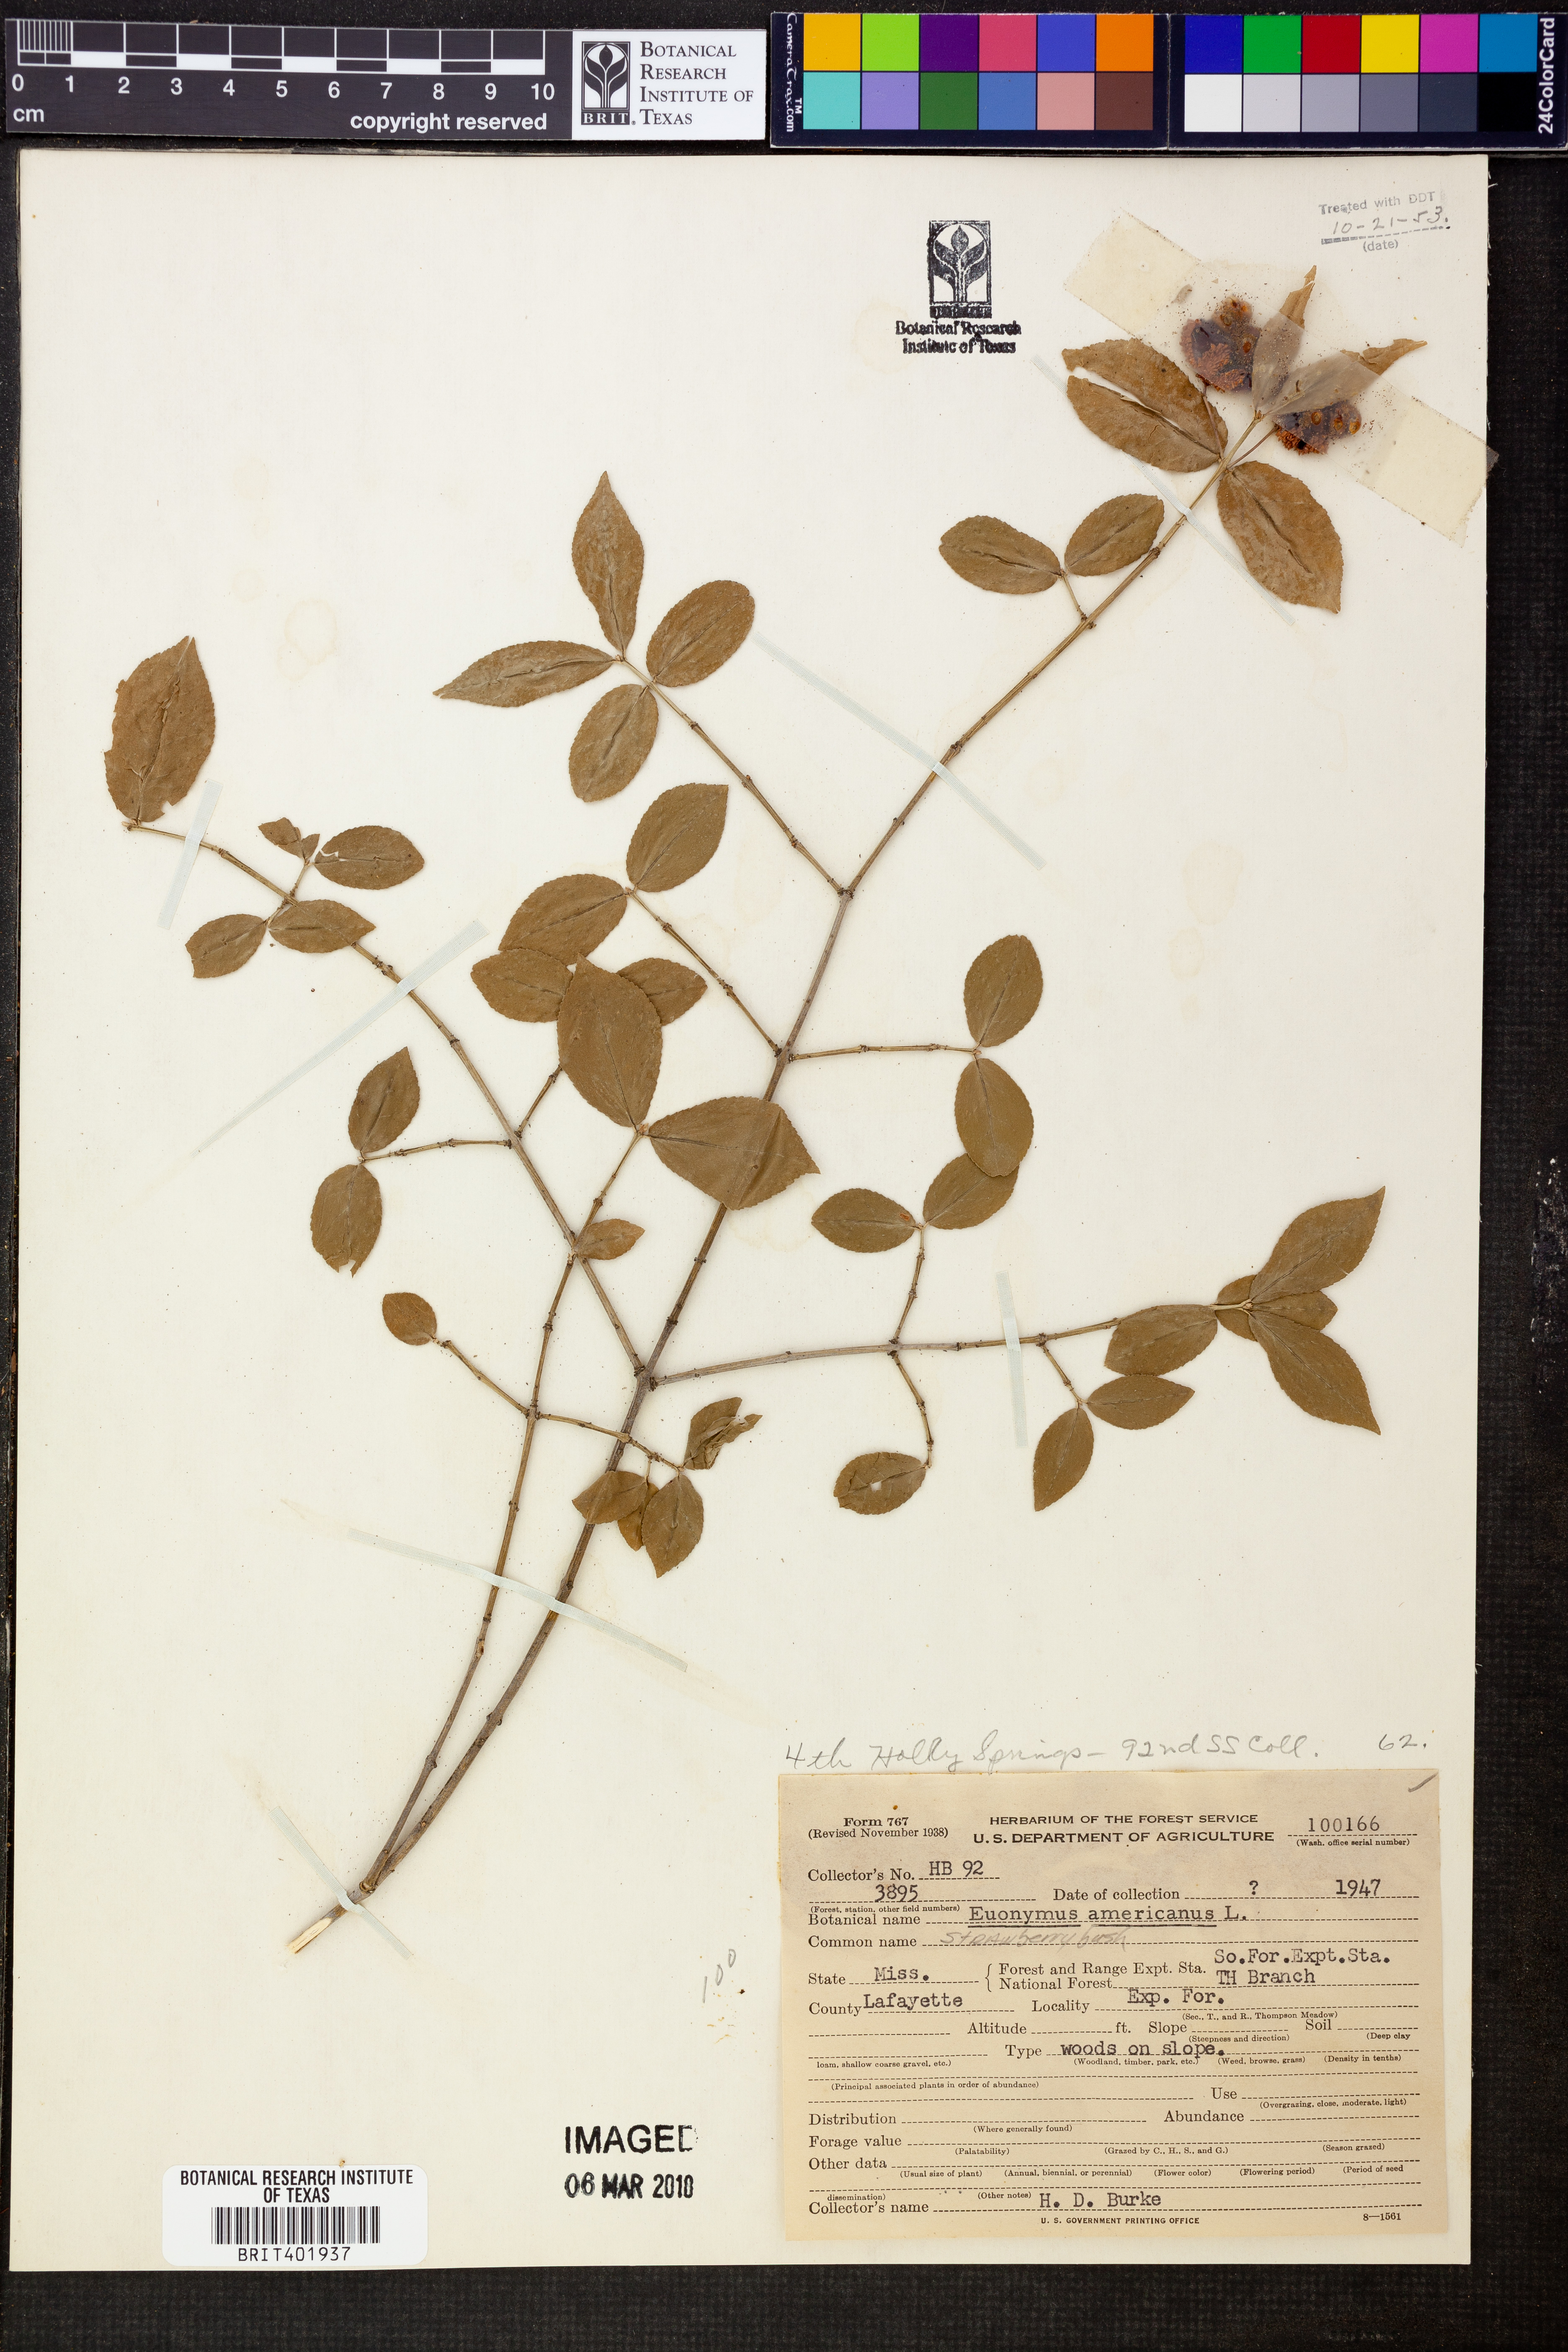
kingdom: Plantae
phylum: Tracheophyta
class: Magnoliopsida
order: Celastrales
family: Celastraceae
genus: Euonymus
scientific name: Euonymus americanus
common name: Bursting-heart
